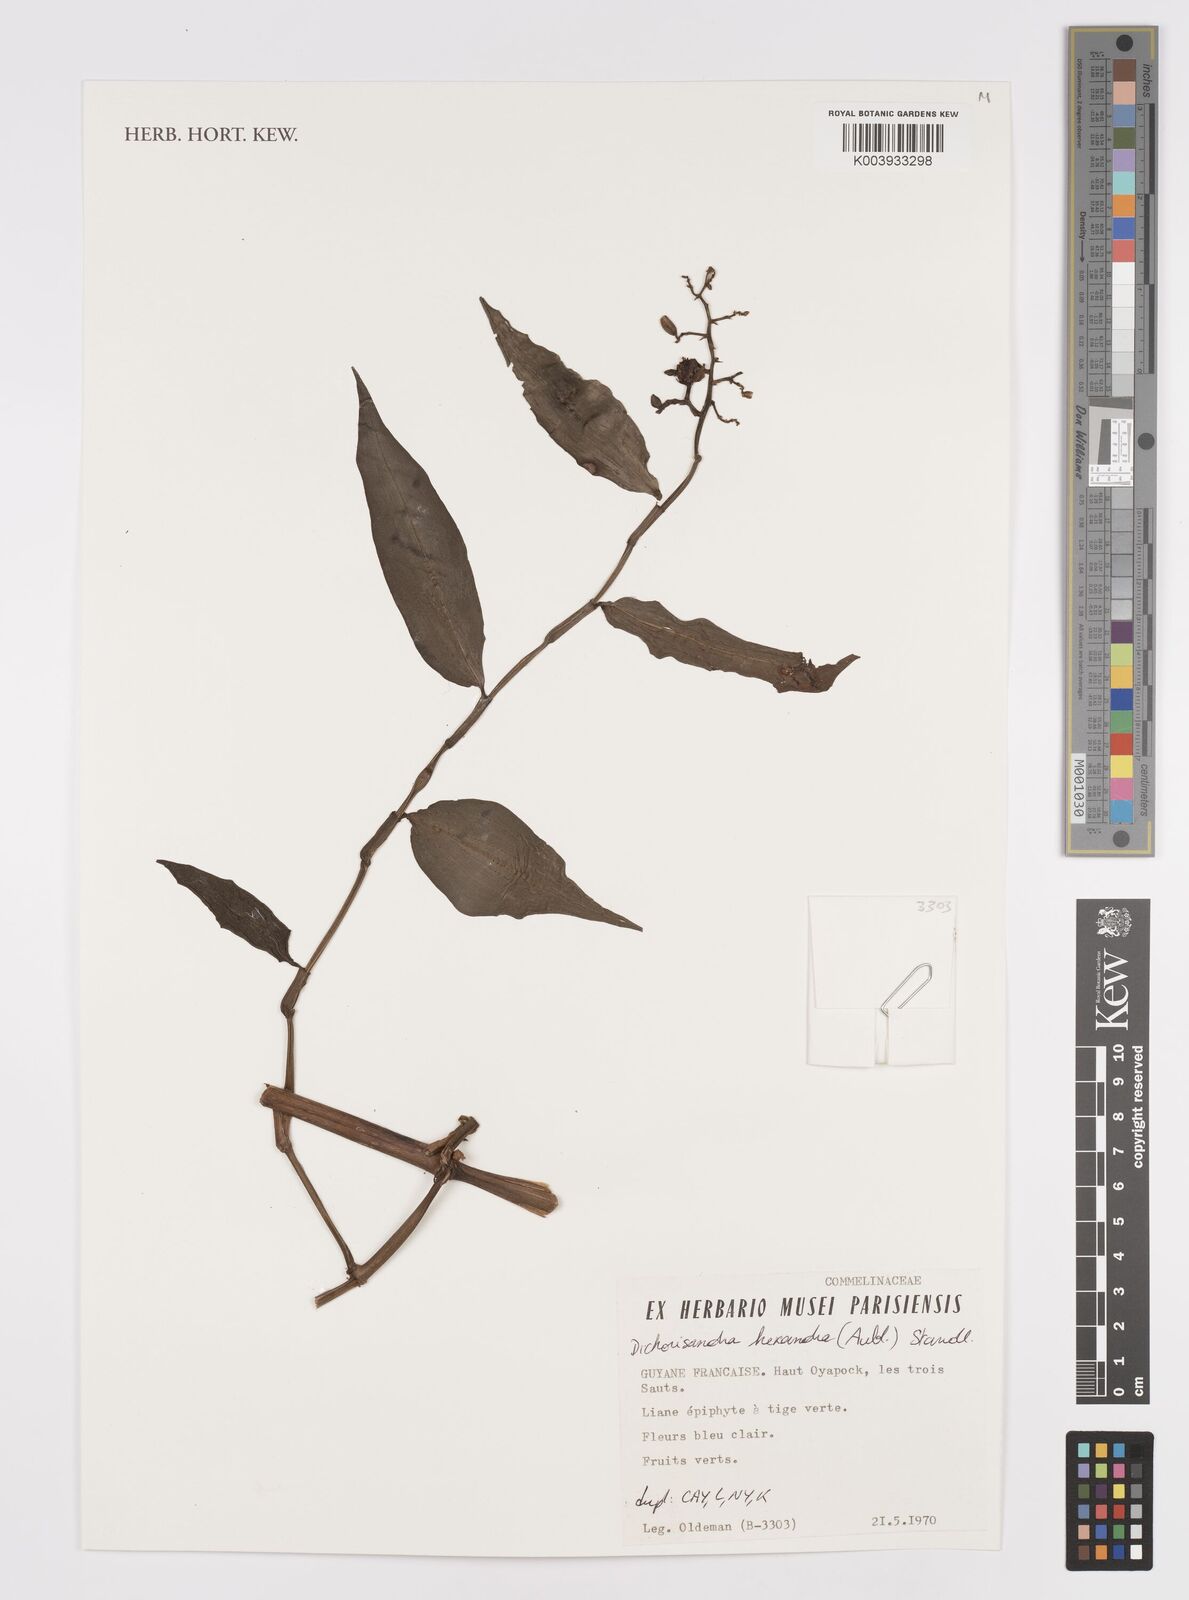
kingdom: Plantae
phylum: Tracheophyta
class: Liliopsida
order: Commelinales
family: Commelinaceae
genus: Dichorisandra
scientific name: Dichorisandra hexandra
